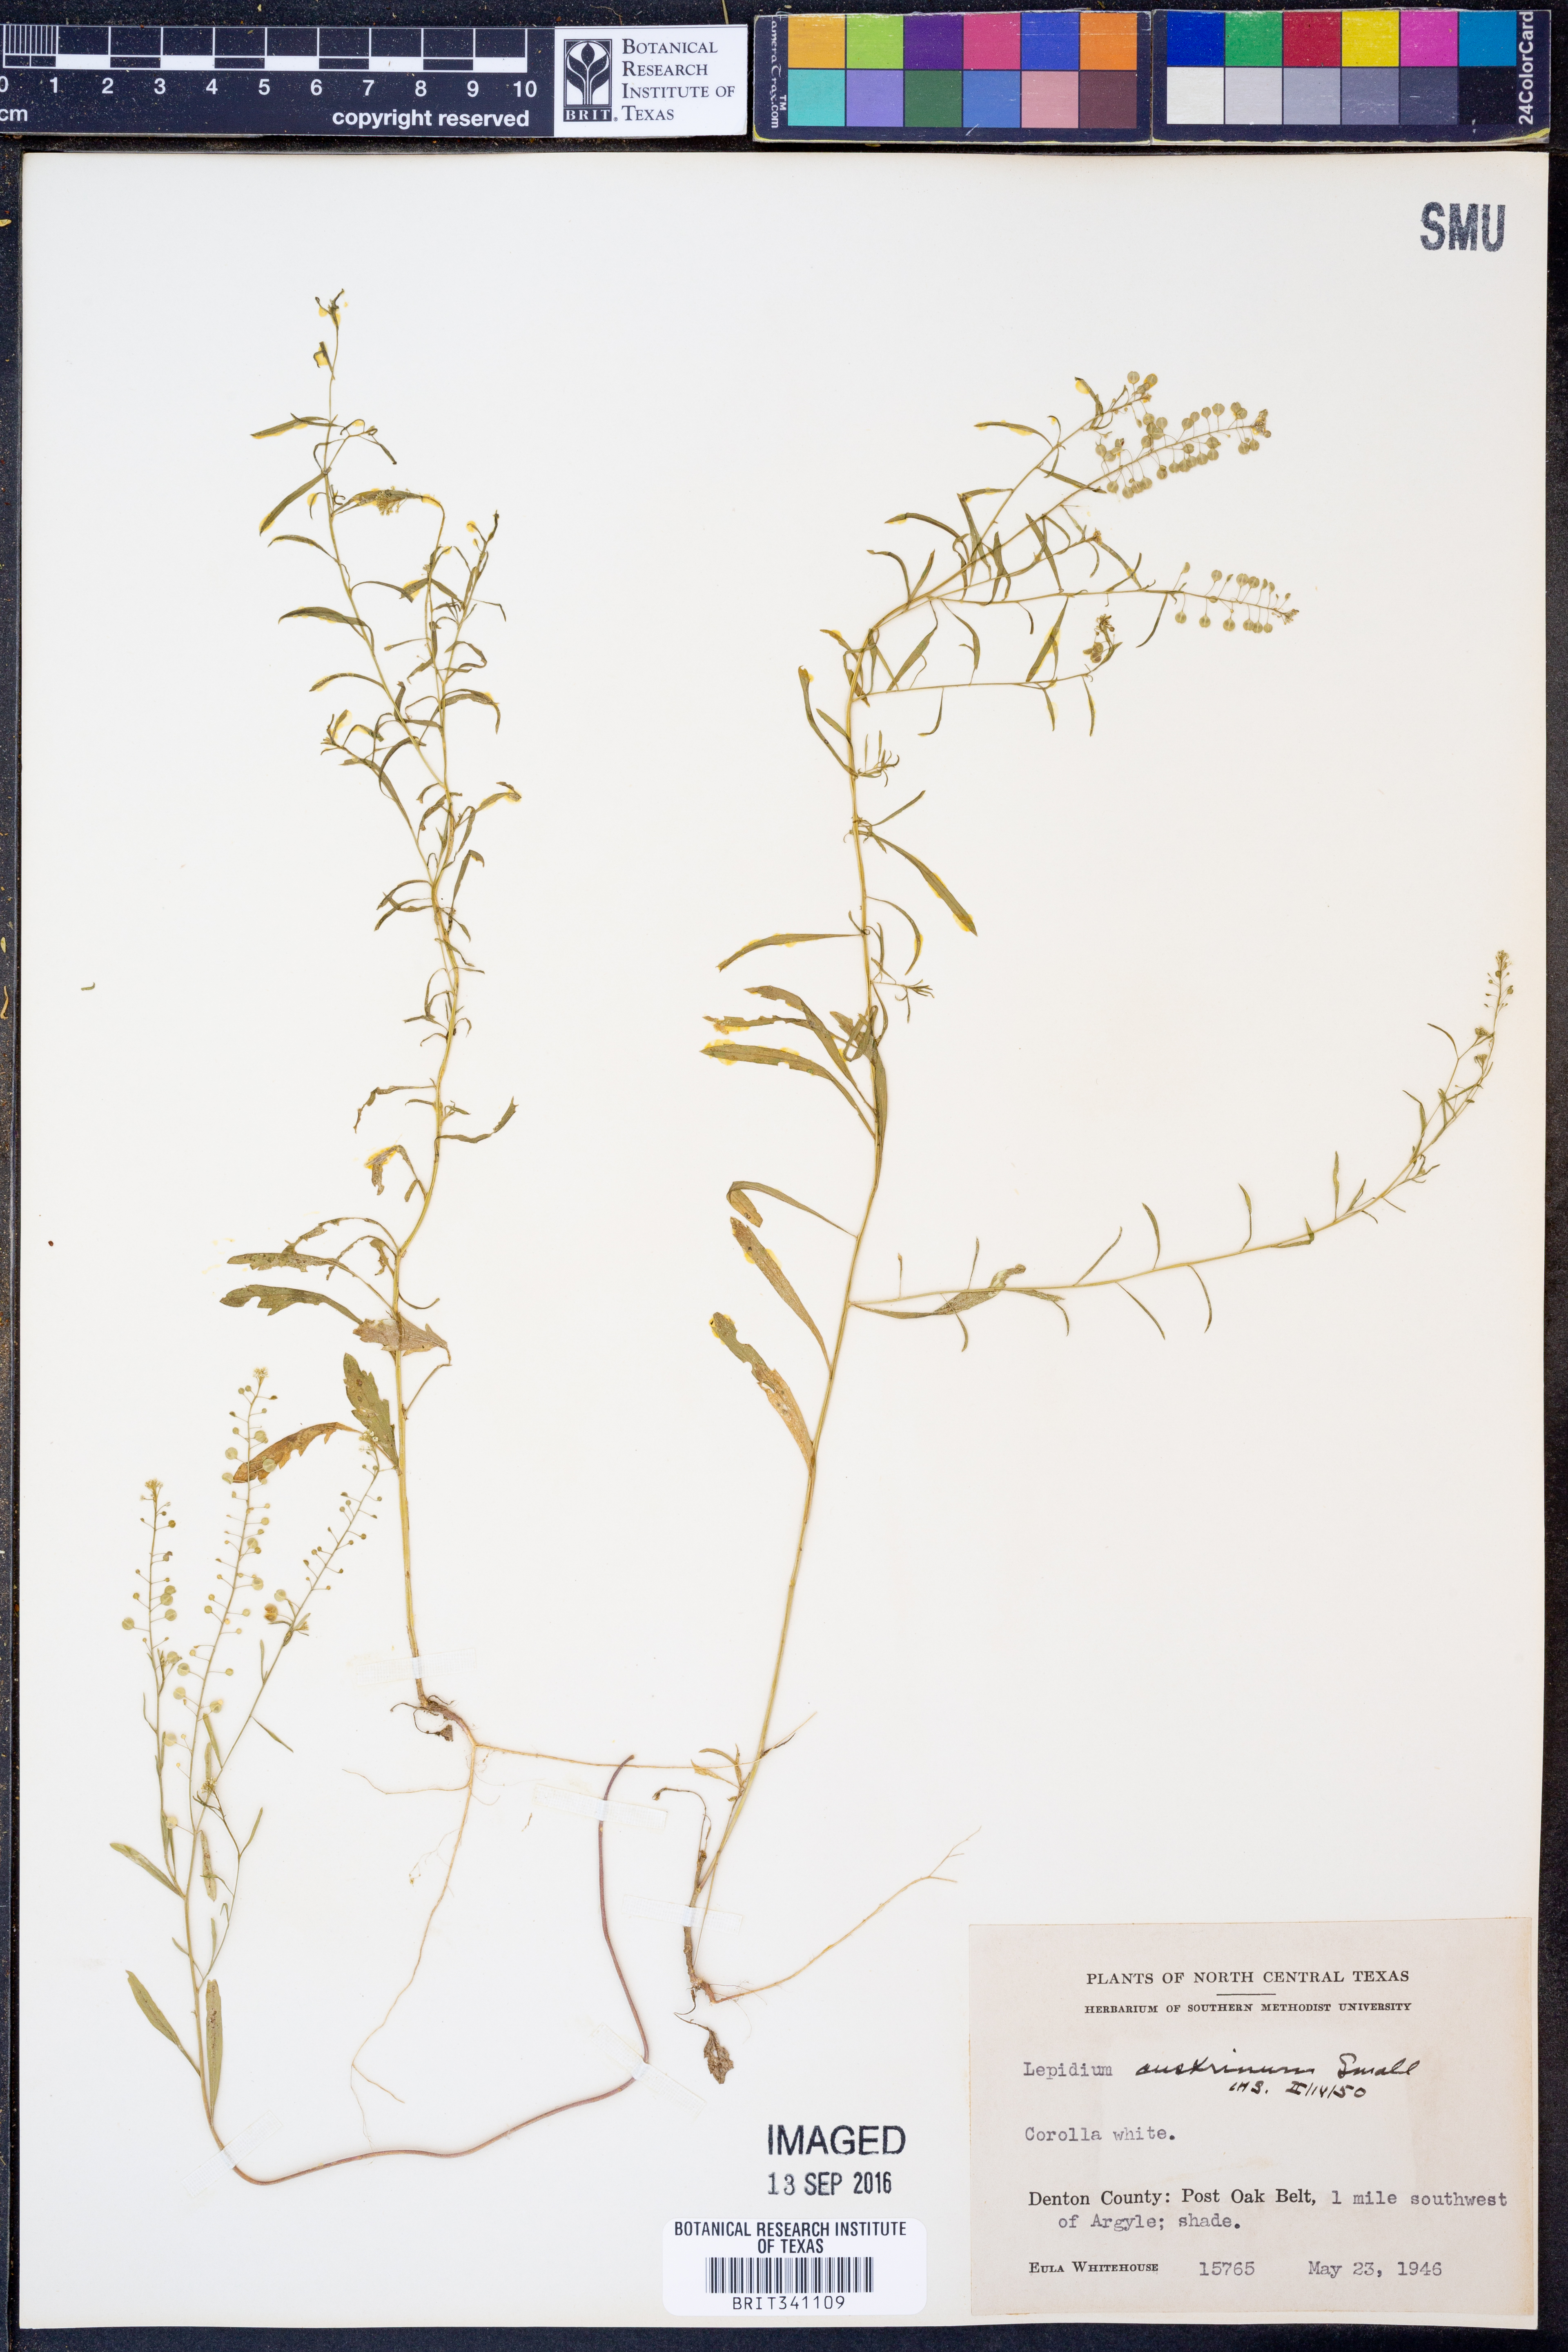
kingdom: Plantae
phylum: Tracheophyta
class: Magnoliopsida
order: Brassicales
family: Brassicaceae
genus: Lepidium
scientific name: Lepidium austrinum
